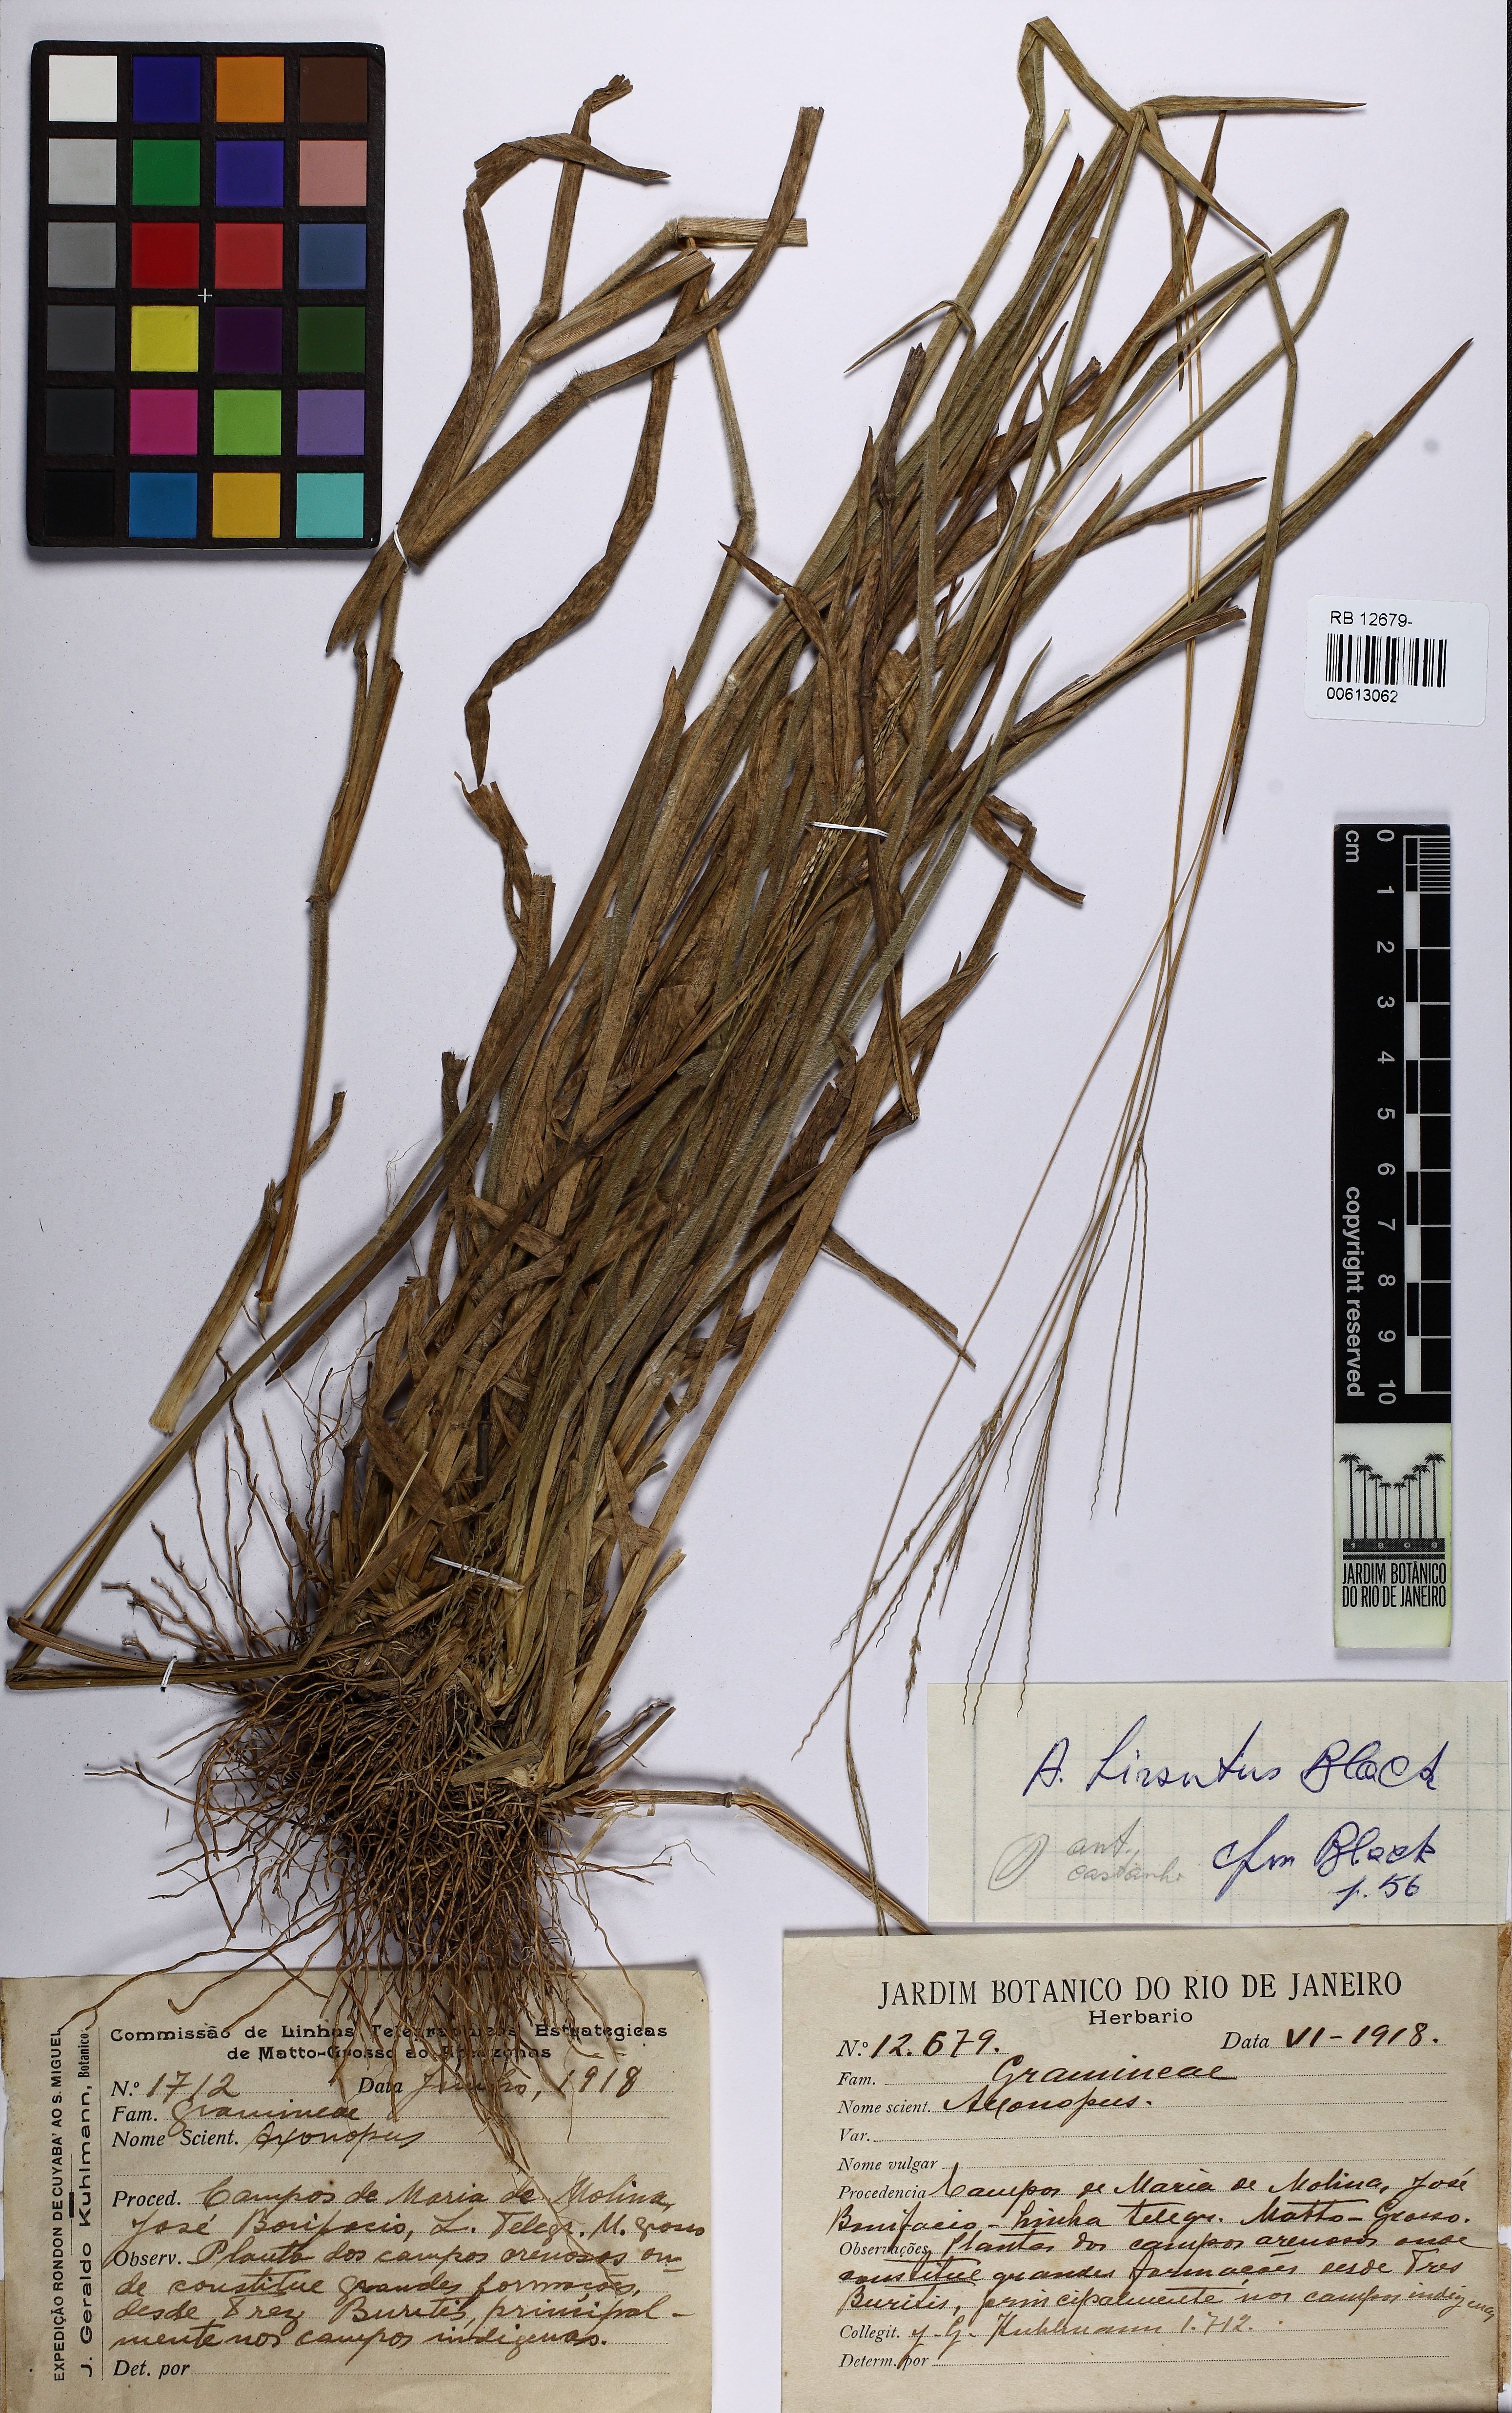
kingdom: Plantae
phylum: Tracheophyta
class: Liliopsida
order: Poales
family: Poaceae
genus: Axonopus
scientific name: Axonopus fissifolius
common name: Common carpetgrass
